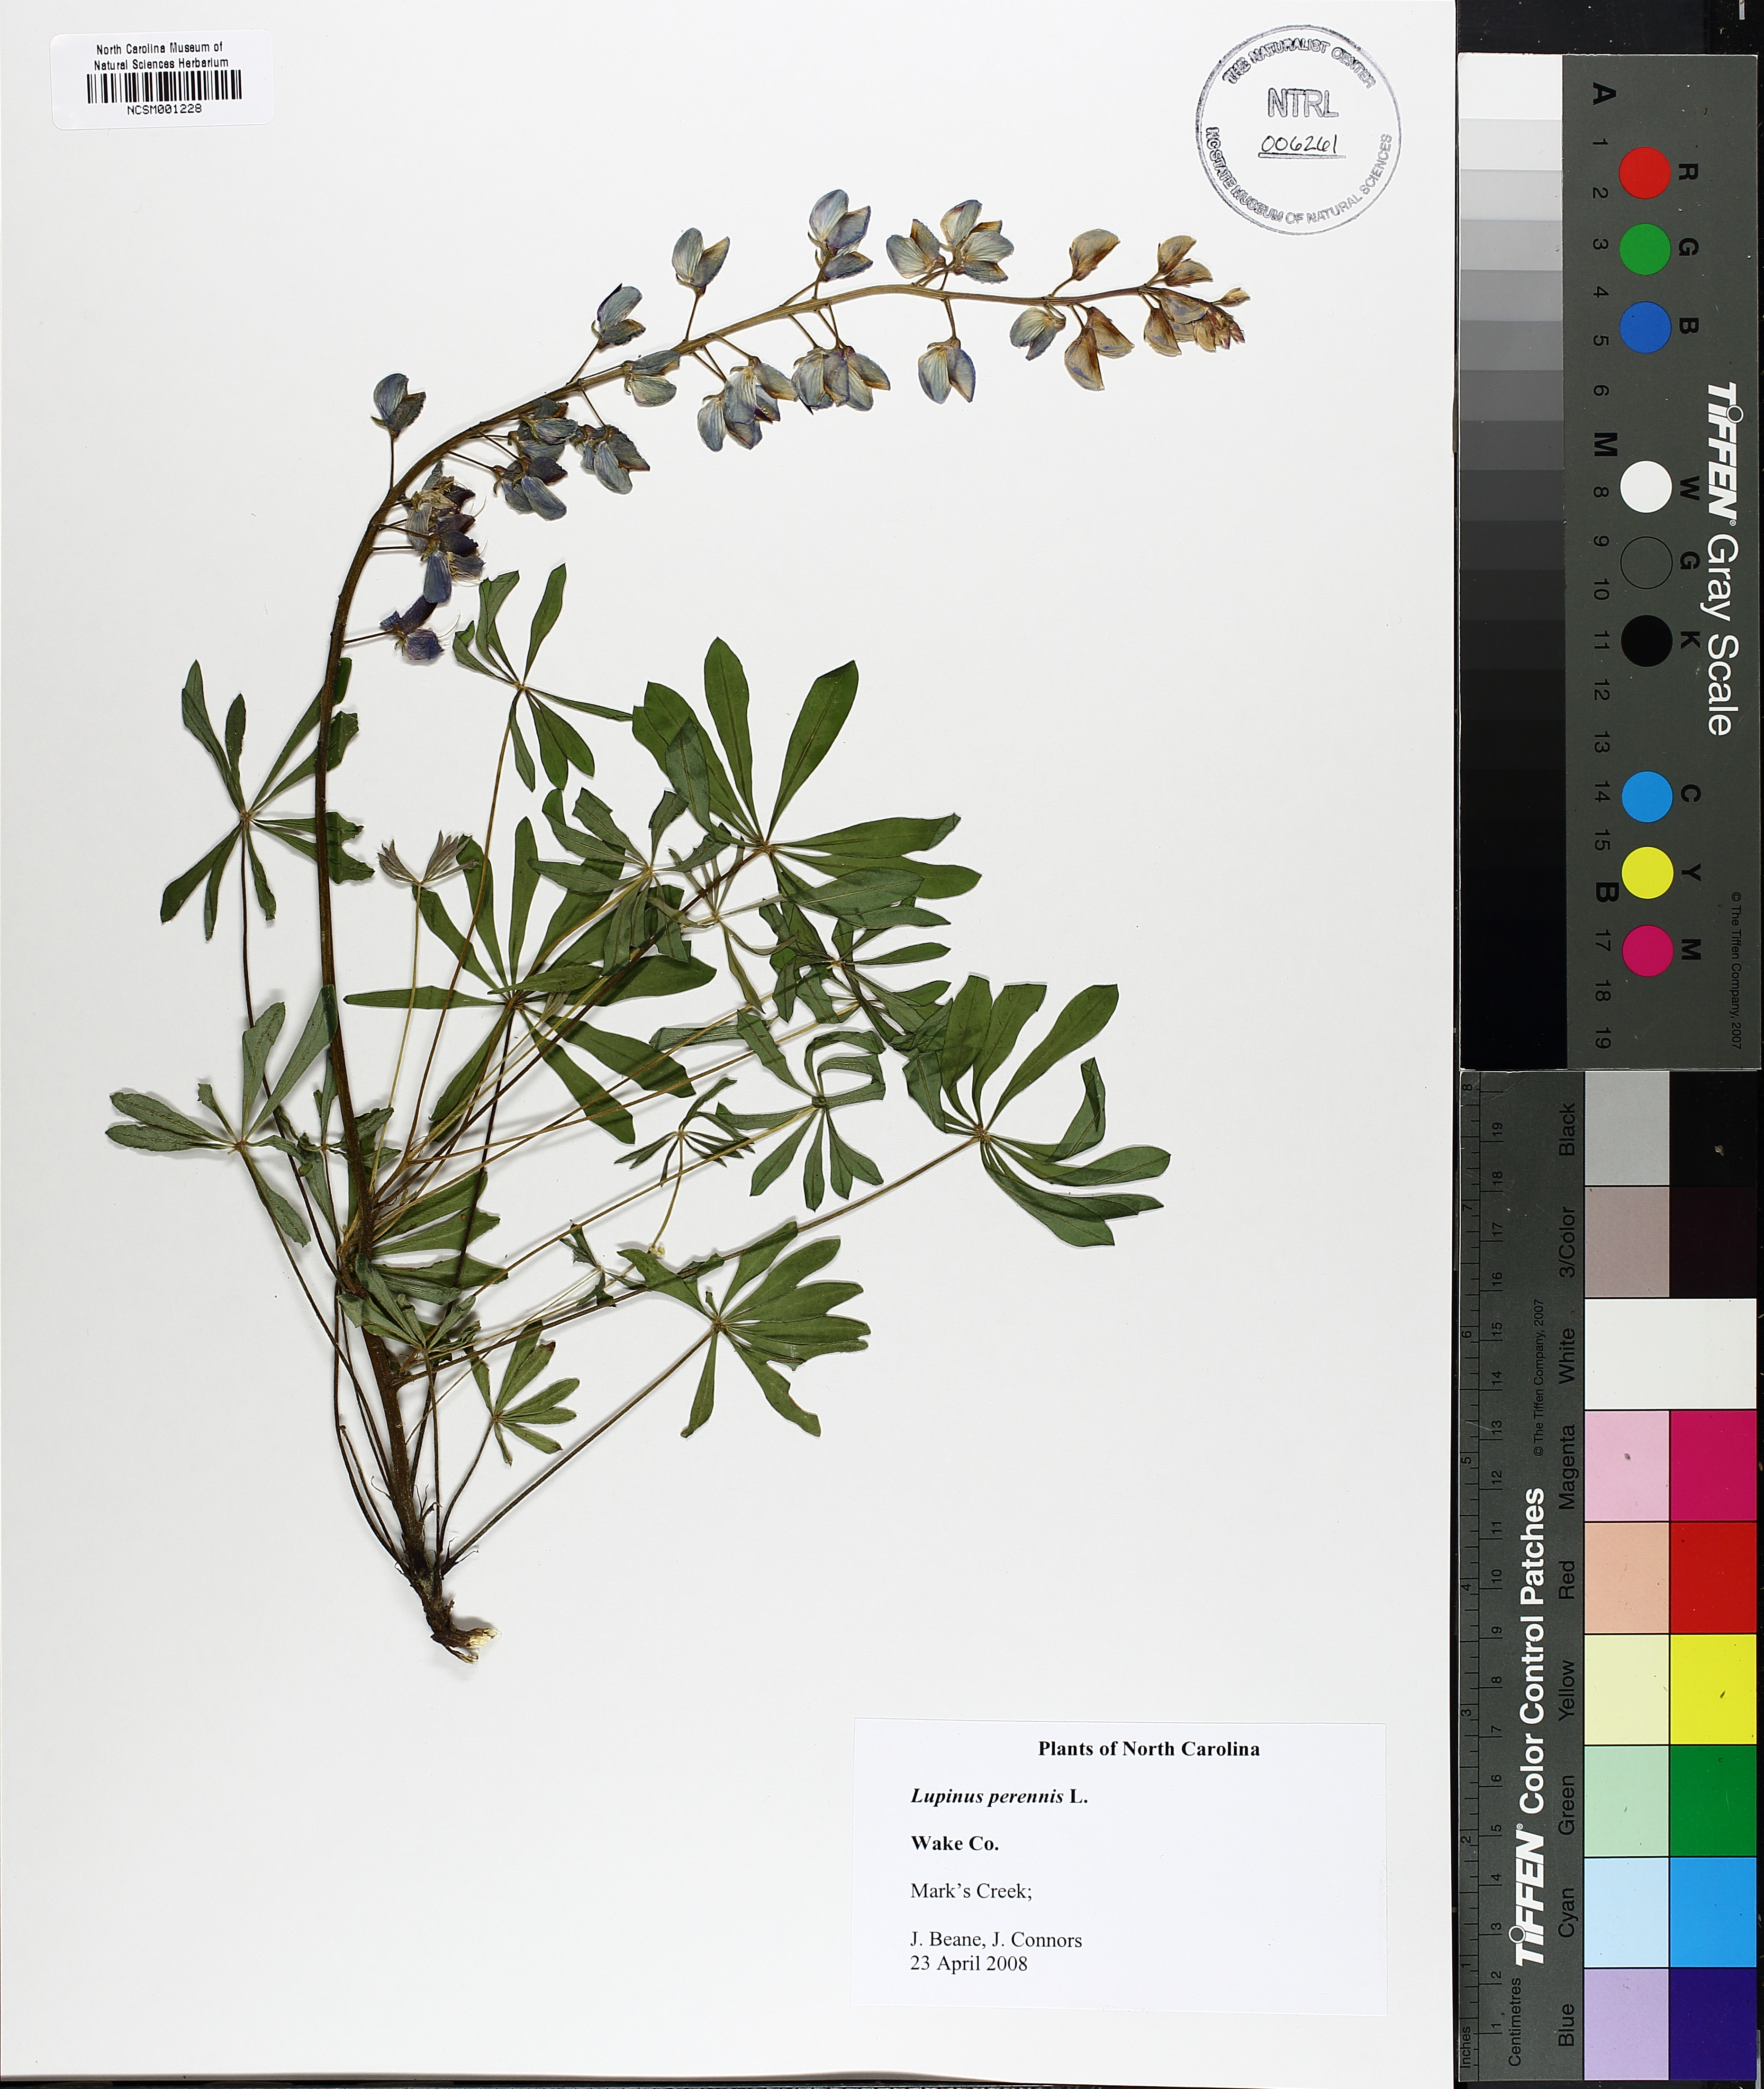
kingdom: Plantae
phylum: Tracheophyta
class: Magnoliopsida
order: Fabales
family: Fabaceae
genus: Lupinus
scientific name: Lupinus perennis
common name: Sundial lupine
